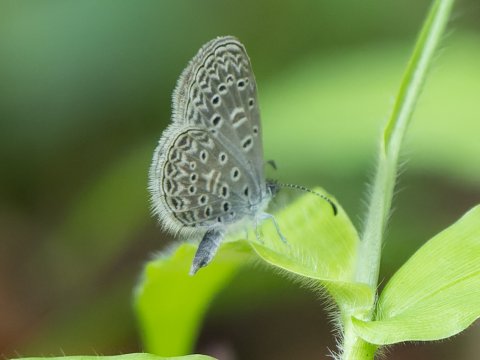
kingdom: Animalia
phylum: Arthropoda
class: Insecta
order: Lepidoptera
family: Lycaenidae
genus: Lycaena
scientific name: Lycaena cyna
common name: Cyna Blue
